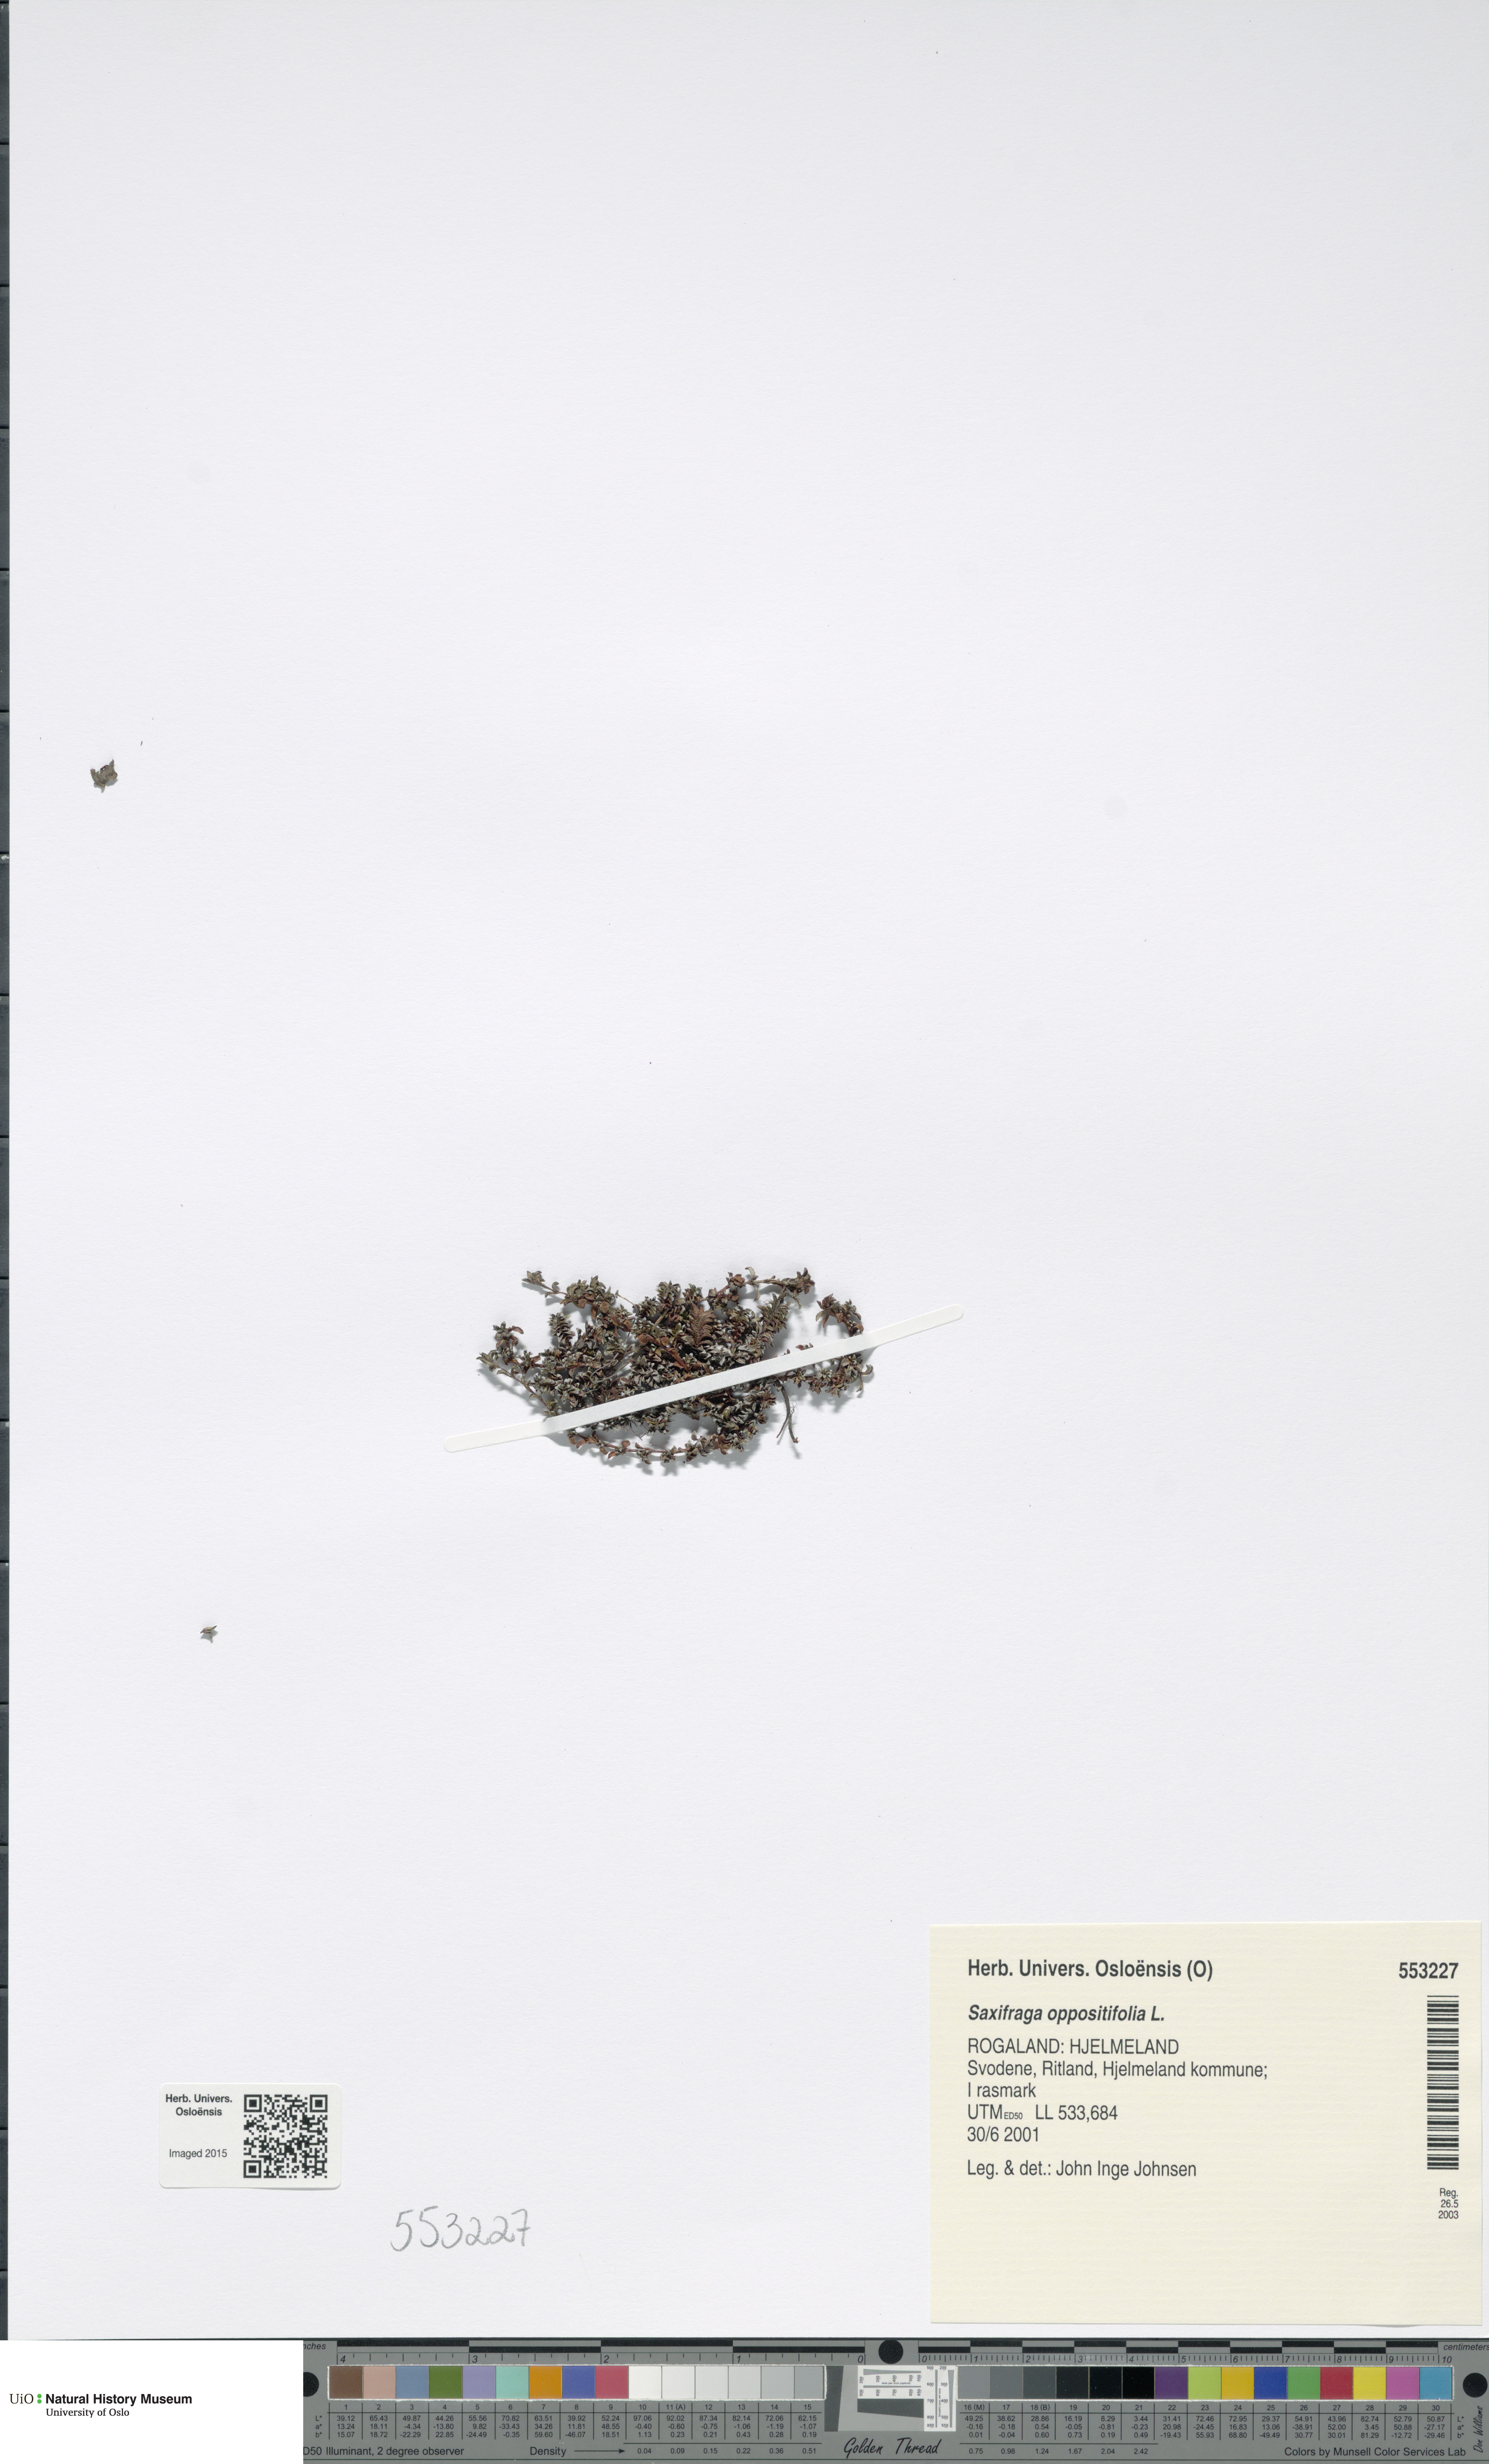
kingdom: Plantae
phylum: Tracheophyta
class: Magnoliopsida
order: Saxifragales
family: Saxifragaceae
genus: Saxifraga
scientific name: Saxifraga oppositifolia
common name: Purple saxifrage
